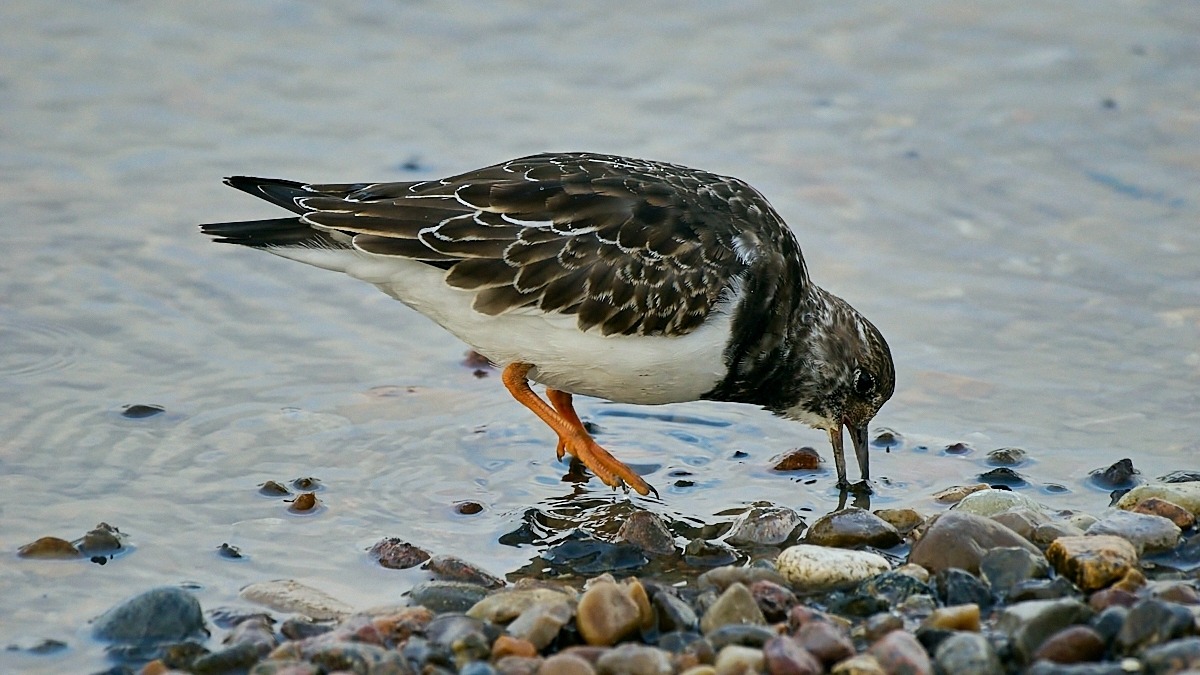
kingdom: Animalia
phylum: Chordata
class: Aves
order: Charadriiformes
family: Scolopacidae
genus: Arenaria
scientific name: Arenaria interpres
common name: Stenvender
